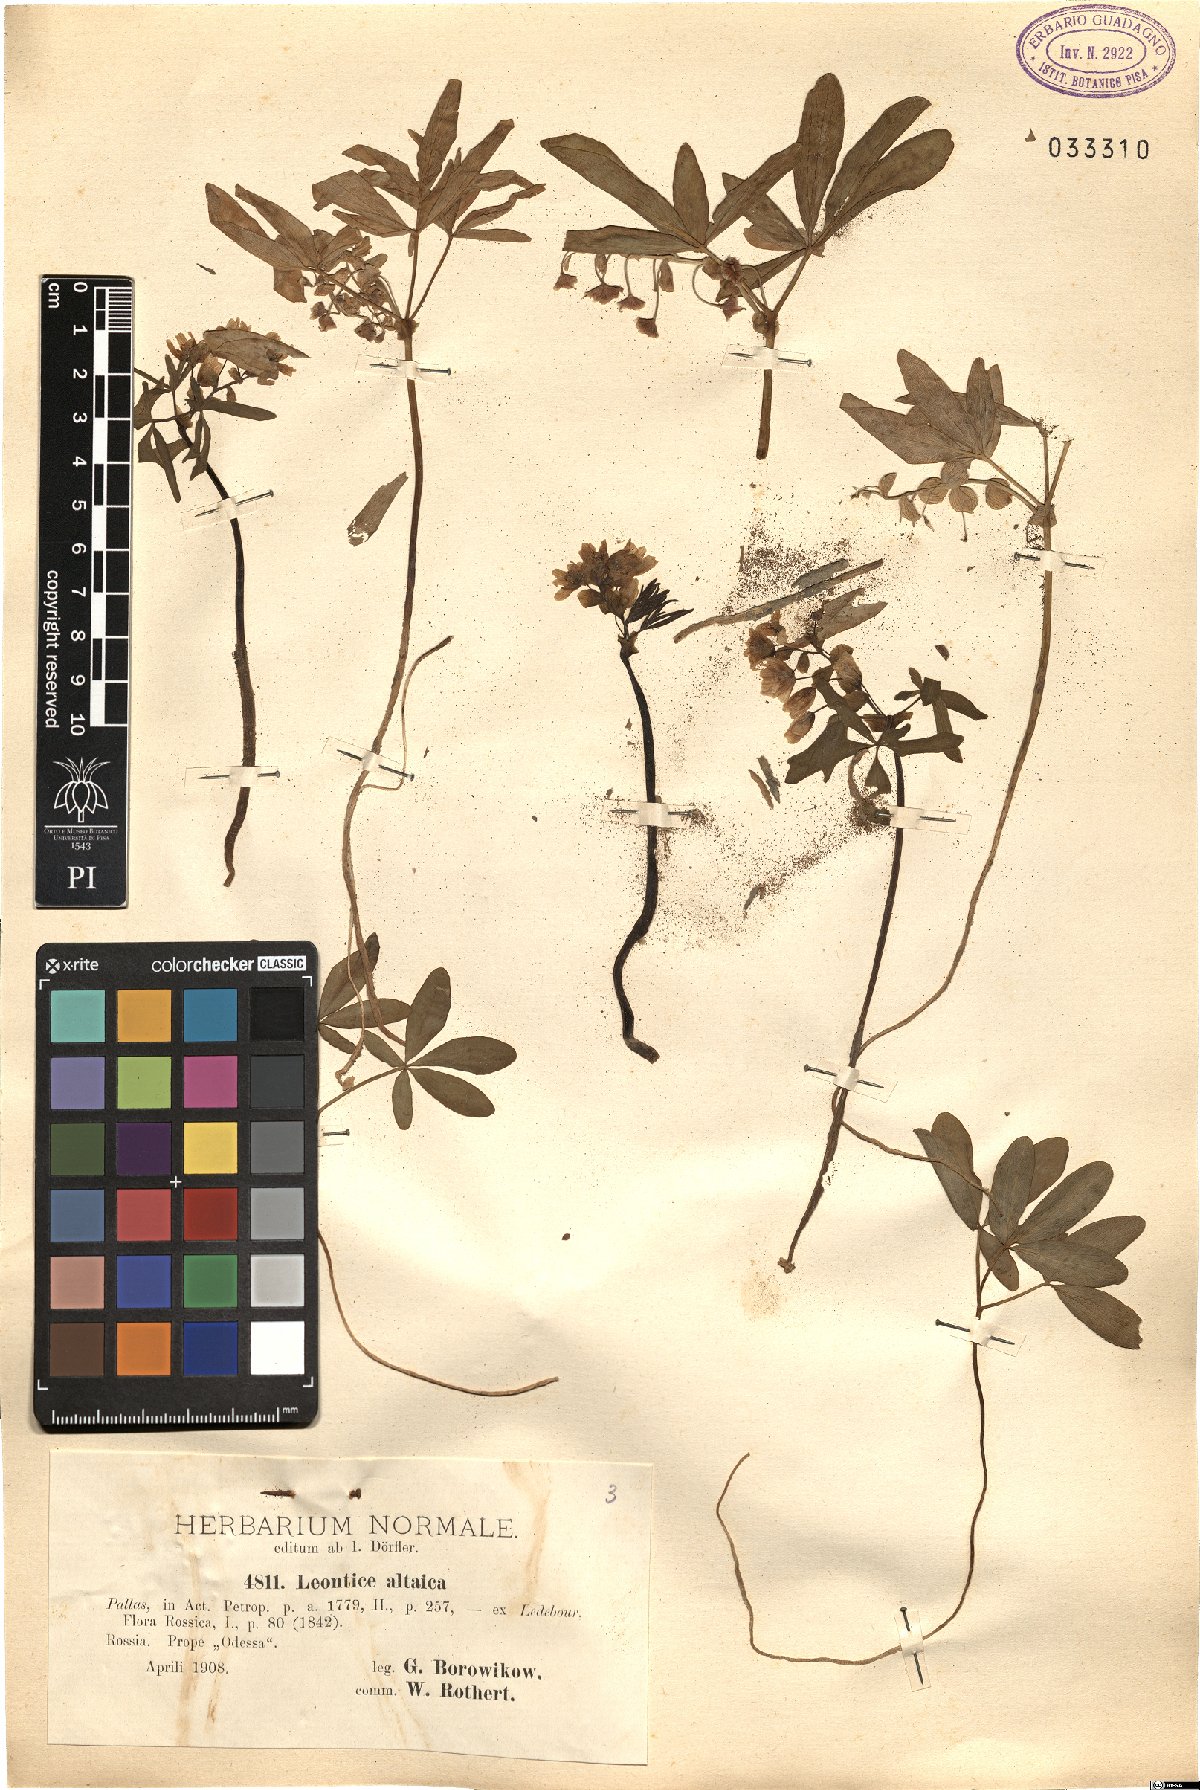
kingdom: Plantae
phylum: Tracheophyta
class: Magnoliopsida
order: Ranunculales
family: Berberidaceae
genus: Gymnospermium
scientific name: Gymnospermium altaicum
